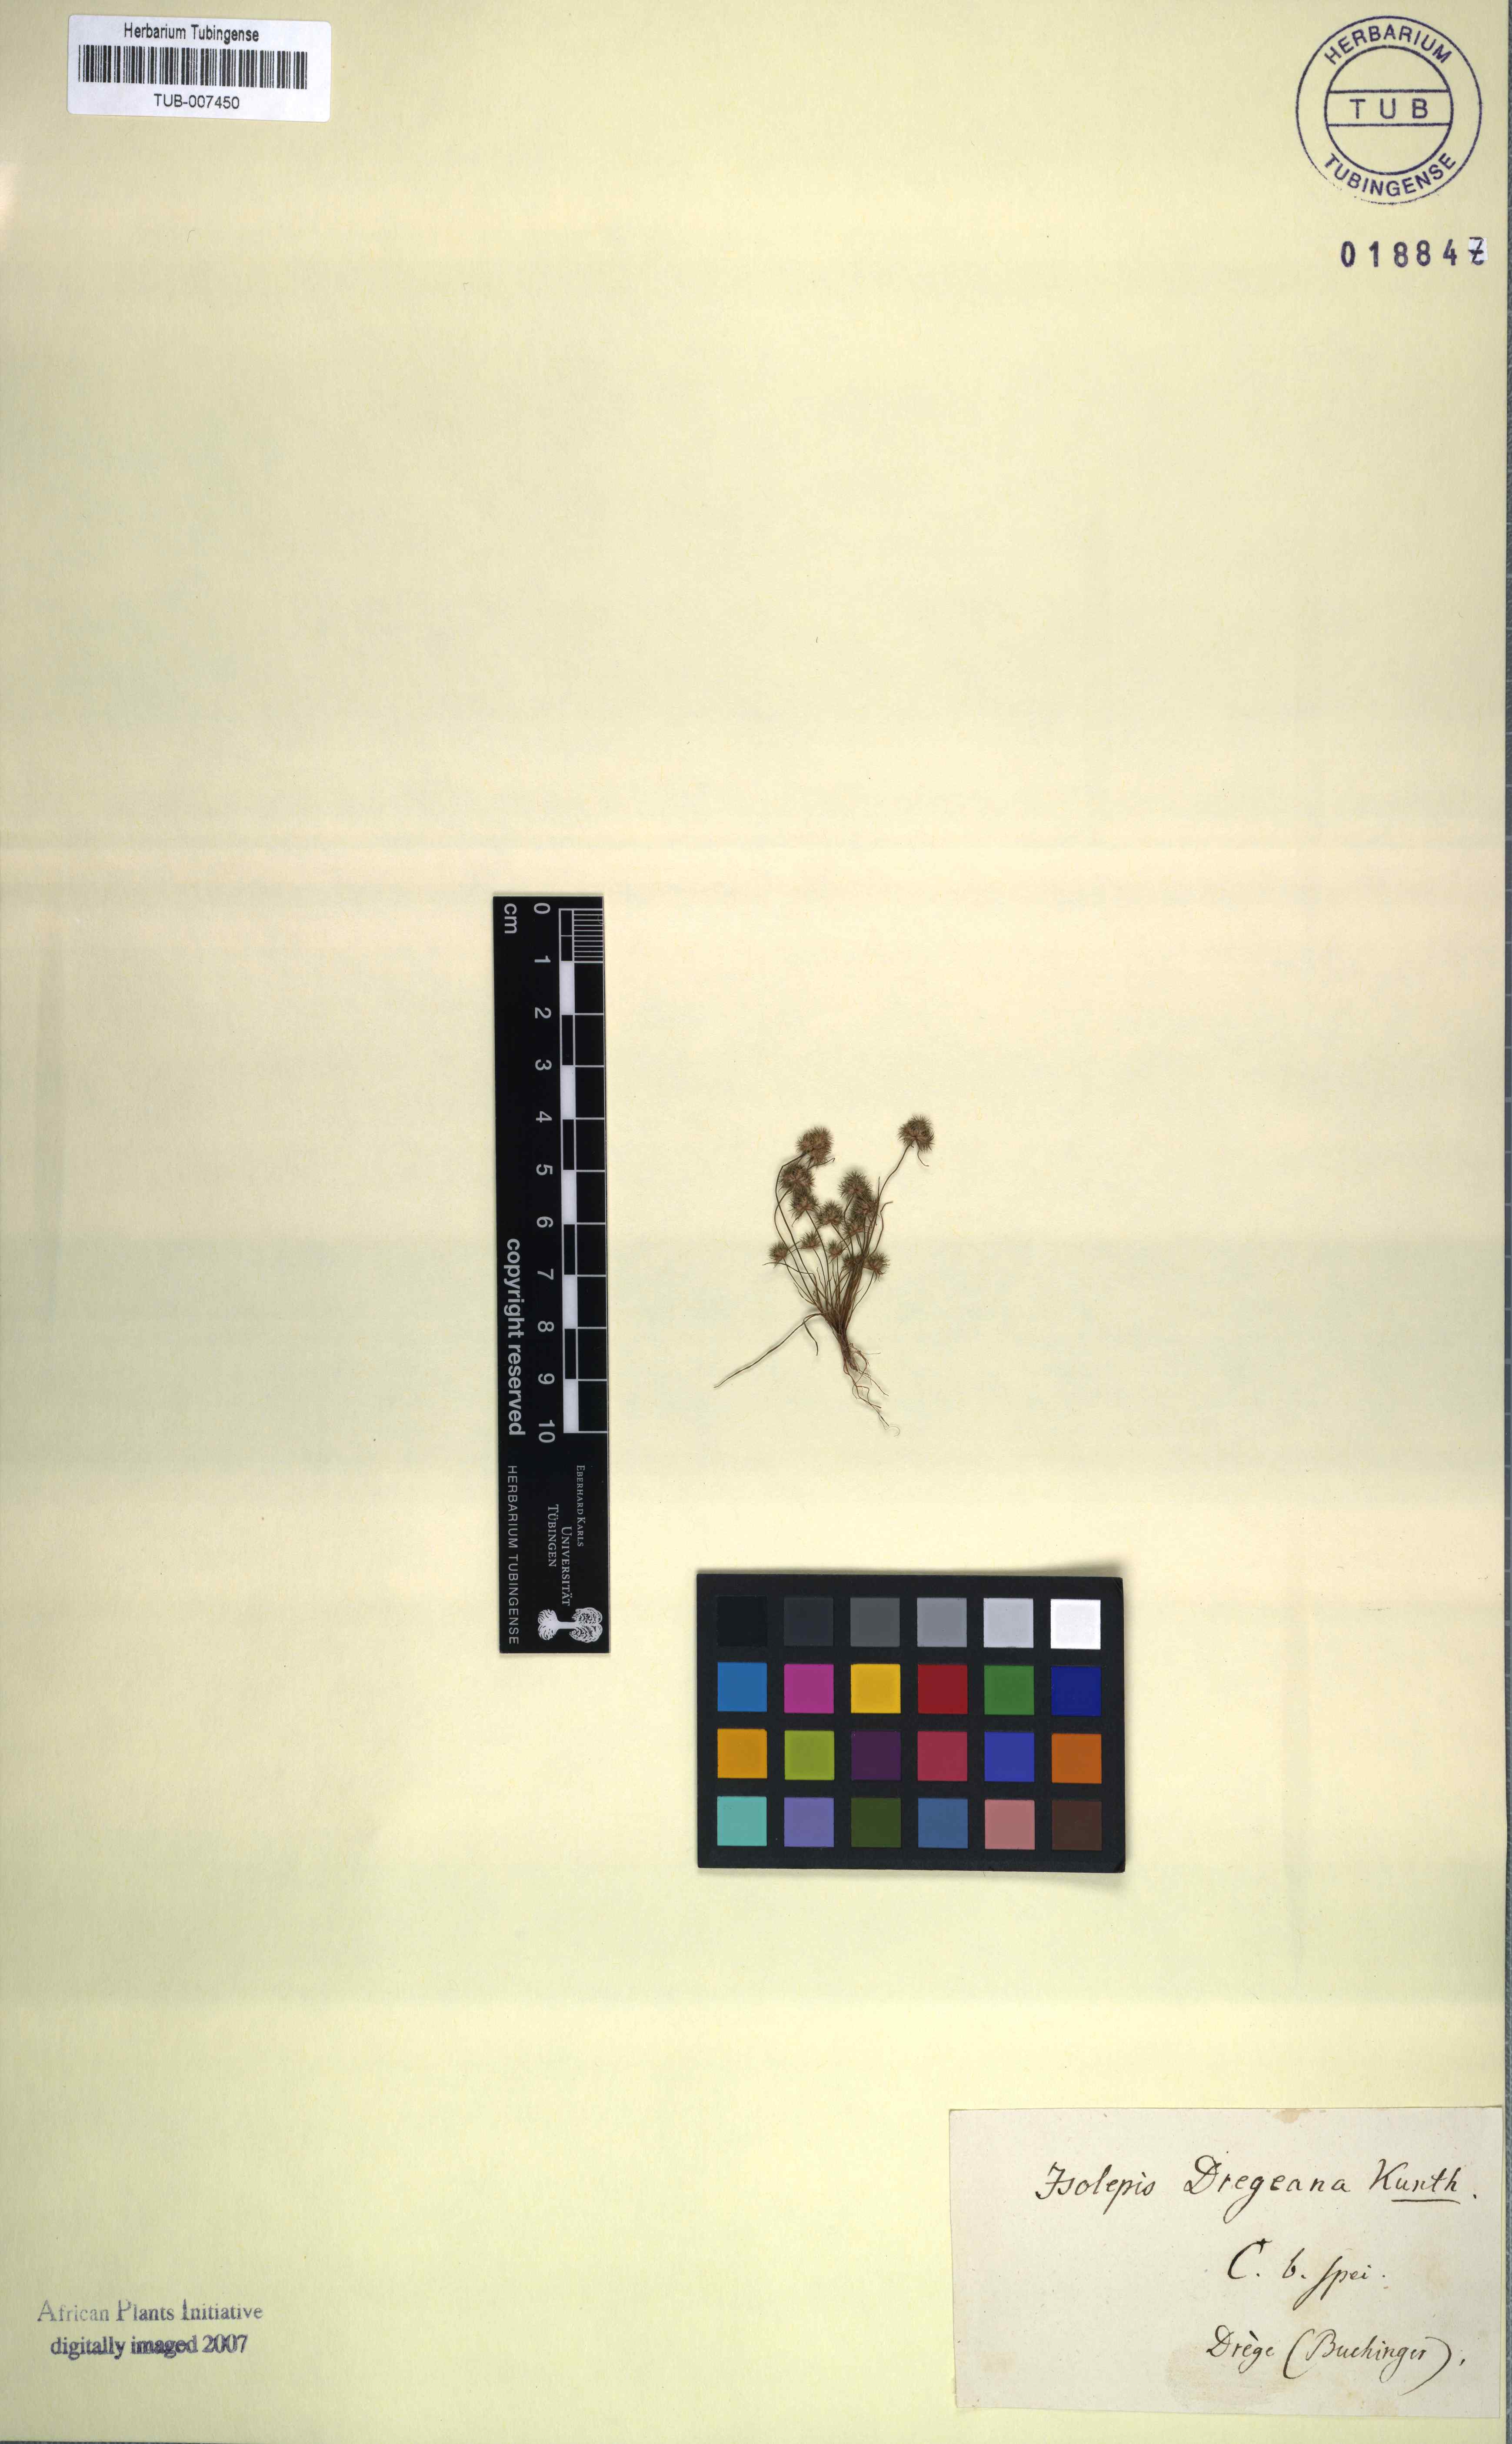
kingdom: Plantae
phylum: Tracheophyta
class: Liliopsida
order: Poales
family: Cyperaceae
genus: Isolepis
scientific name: Isolepis hystrix
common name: Bottlebrush bulrush
